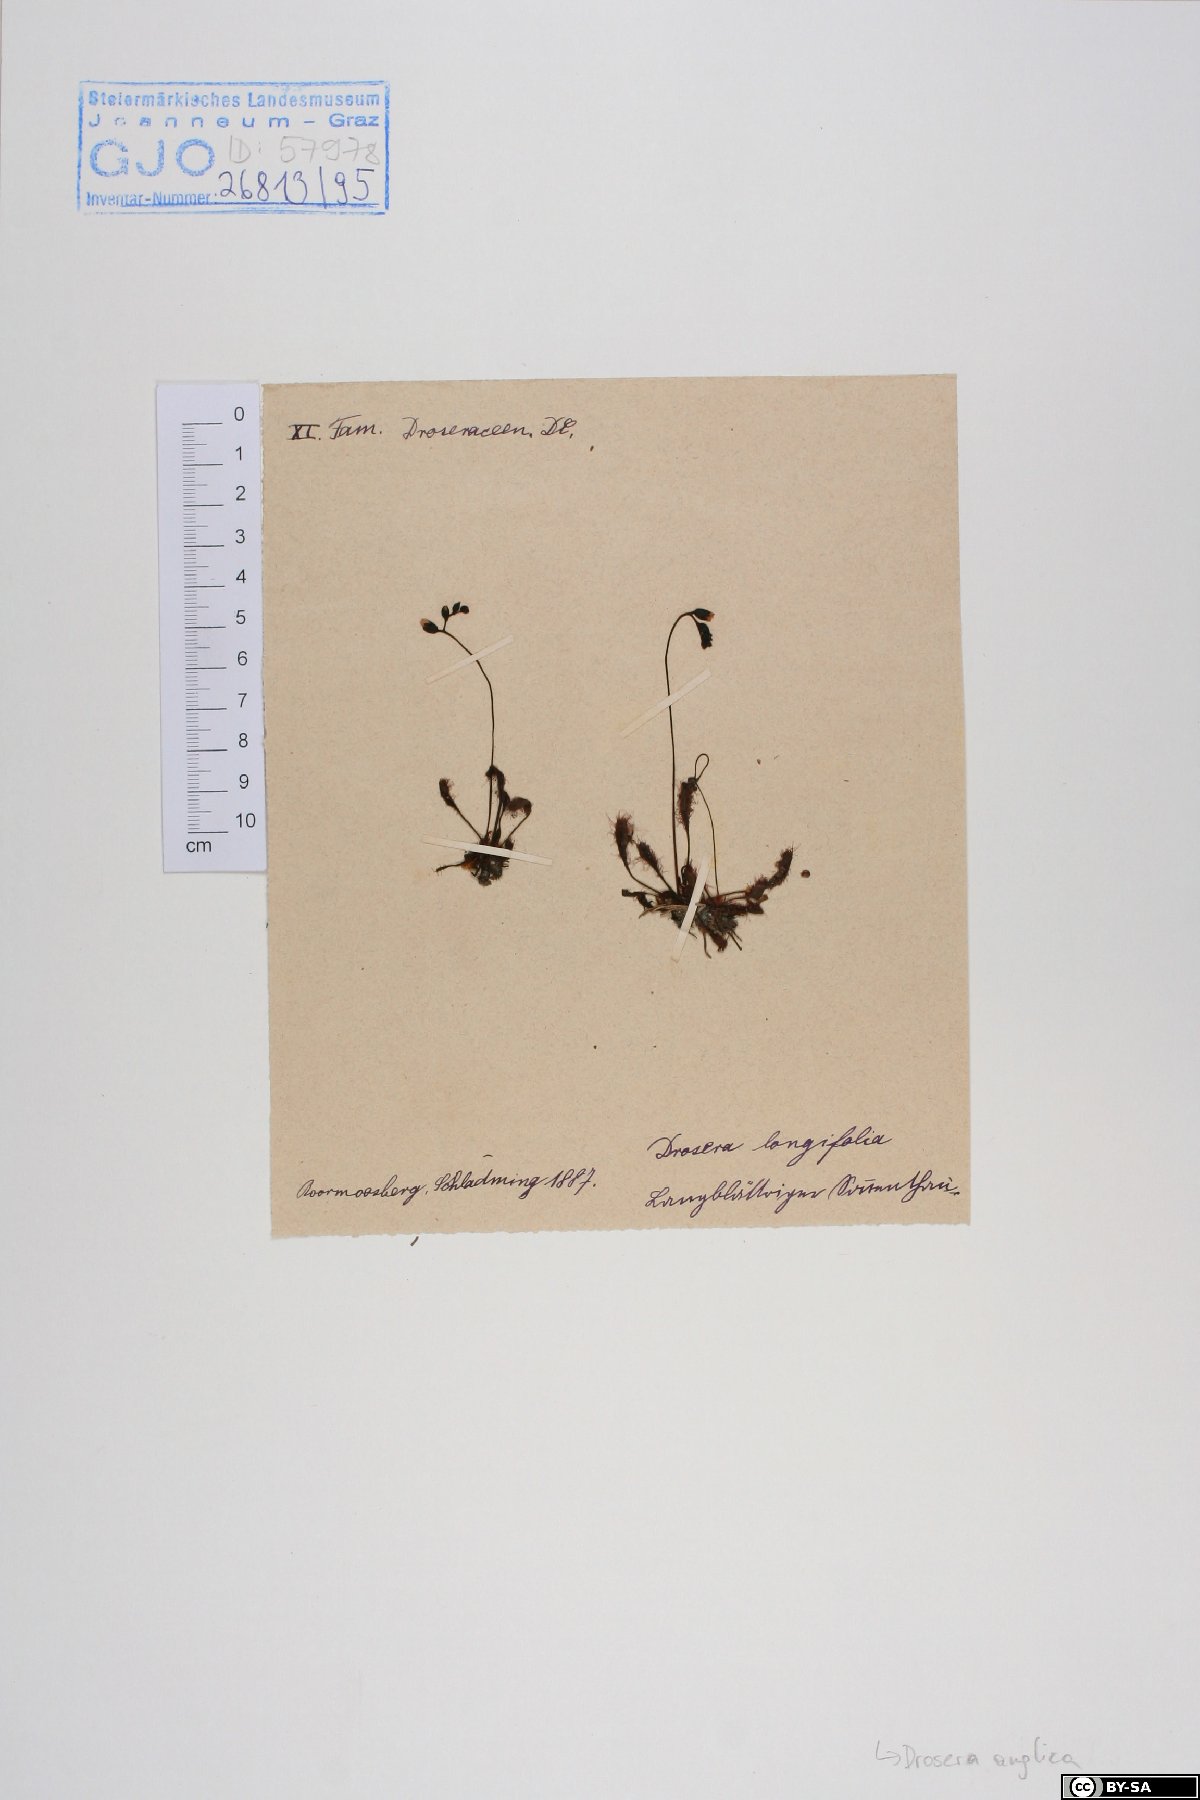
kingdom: Plantae
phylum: Tracheophyta
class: Magnoliopsida
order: Caryophyllales
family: Droseraceae
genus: Drosera
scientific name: Drosera anglica
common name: Great sundew
